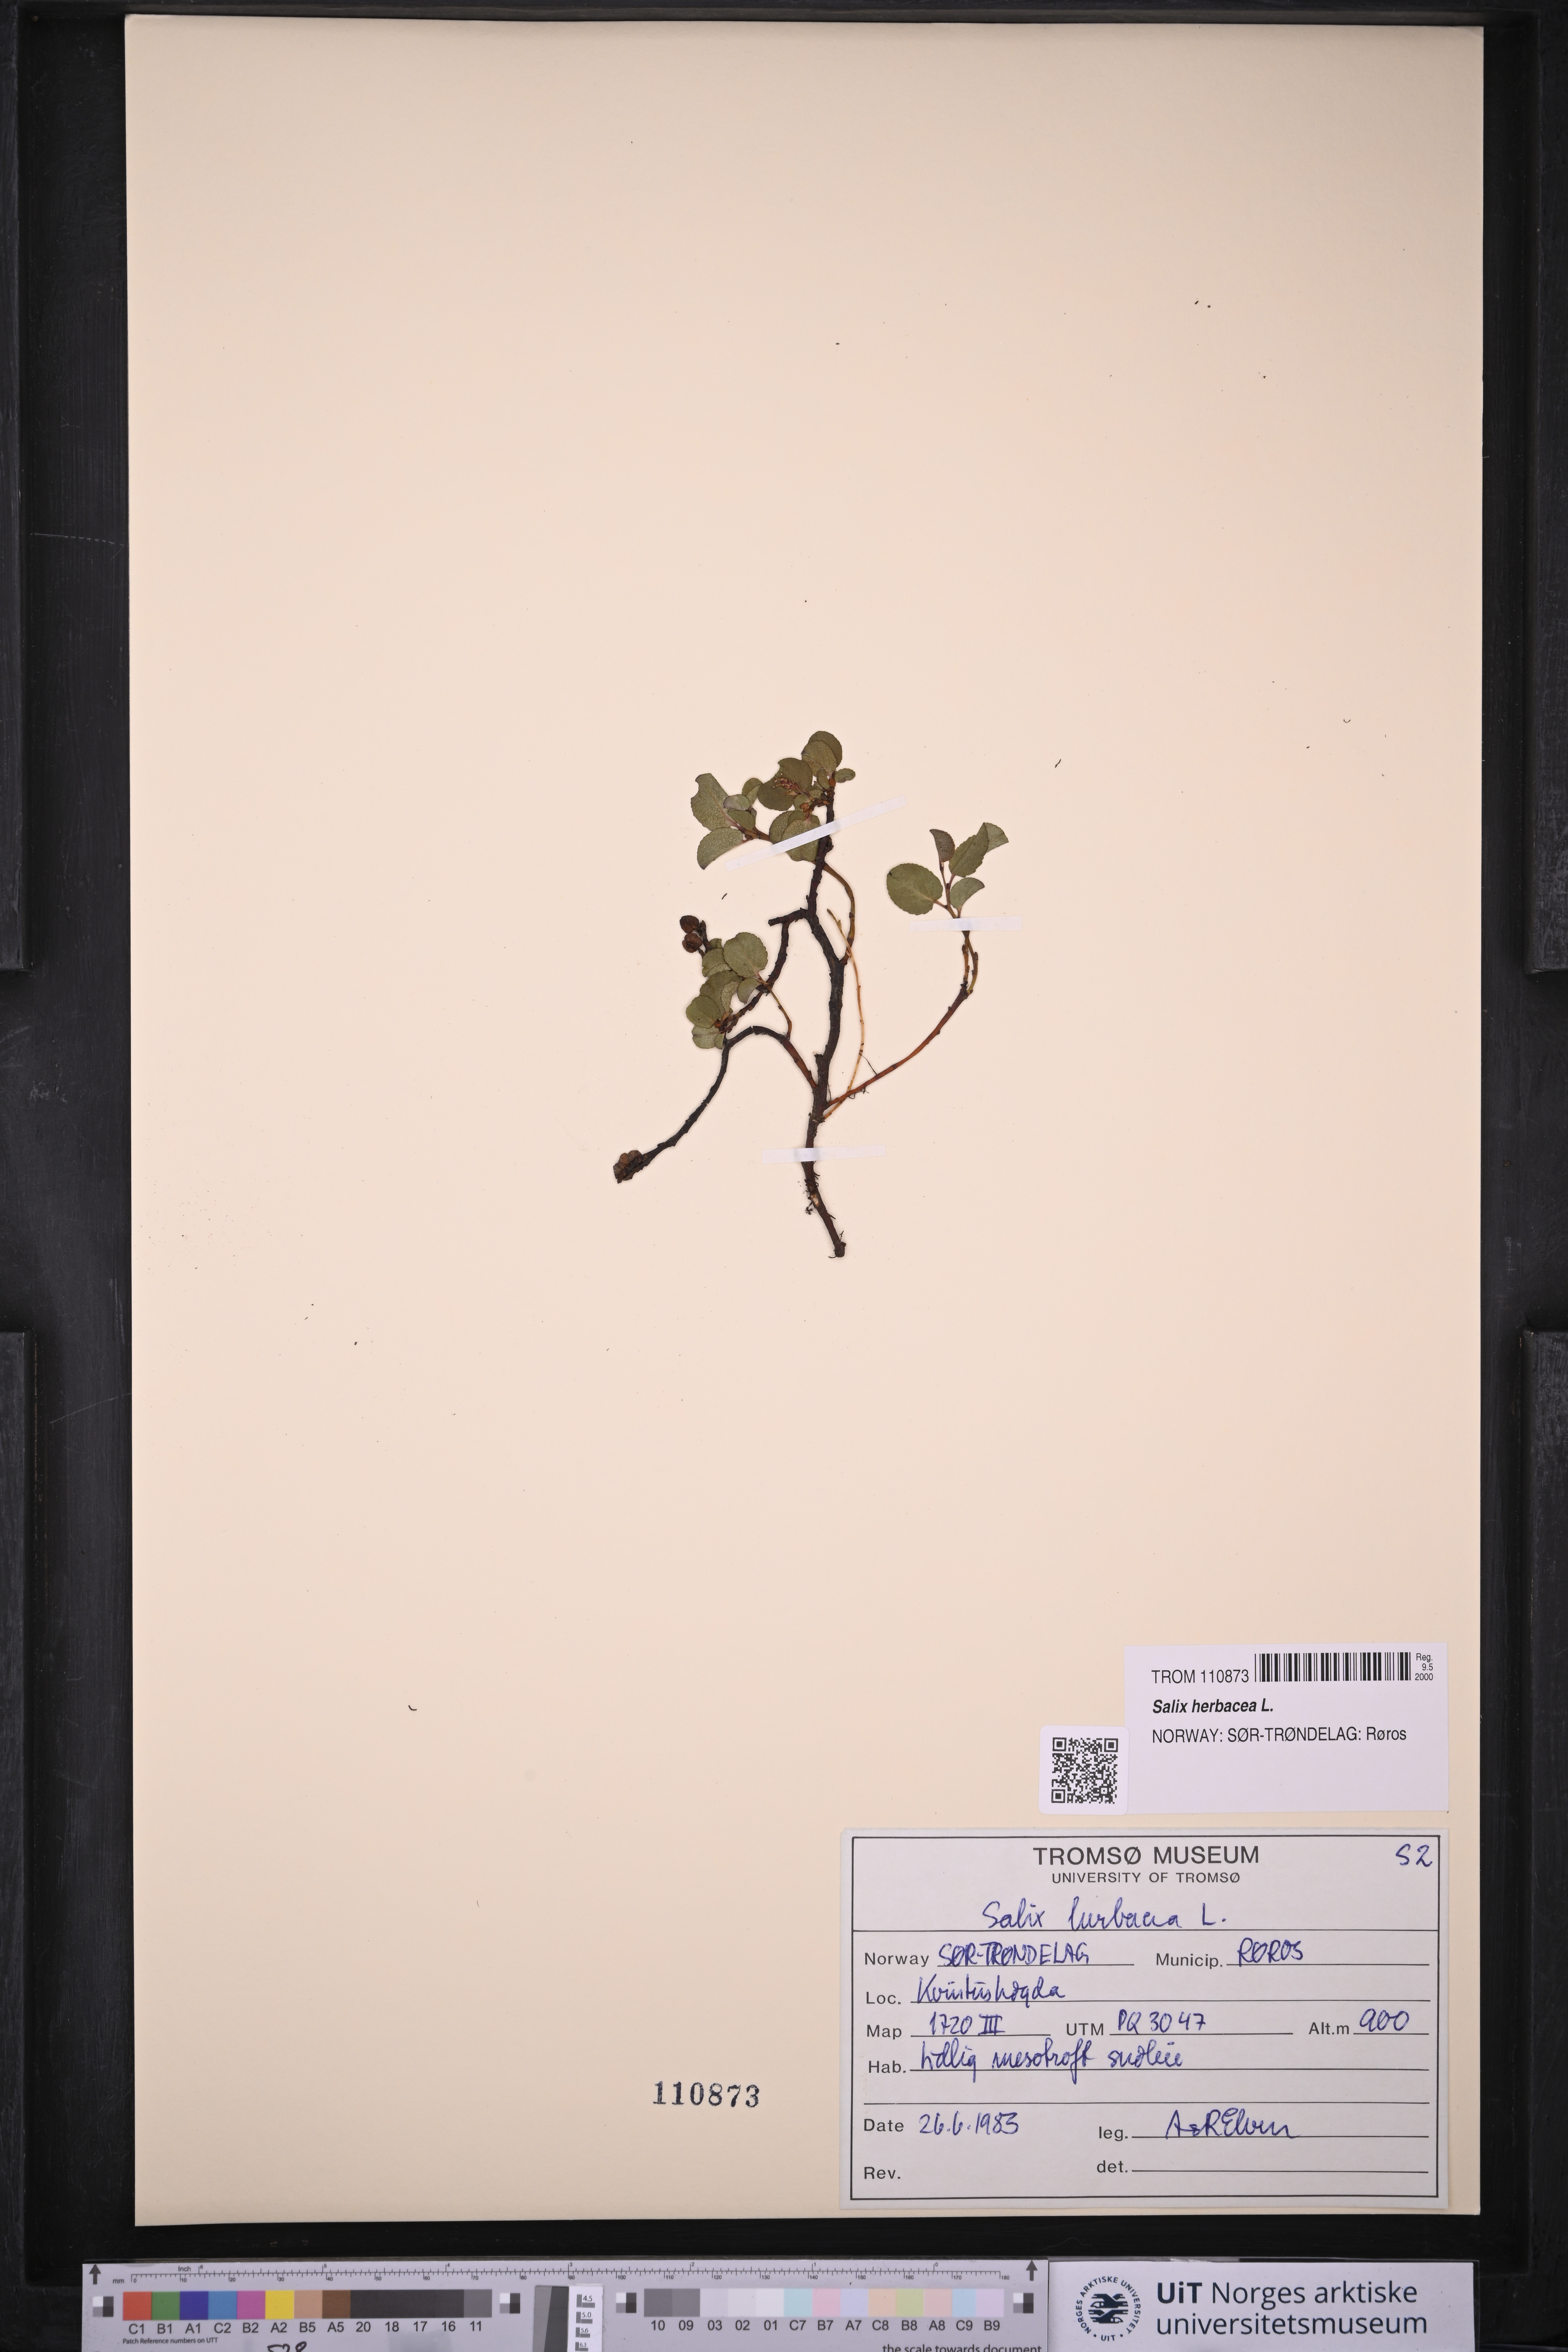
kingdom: Plantae
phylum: Tracheophyta
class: Magnoliopsida
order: Malpighiales
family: Salicaceae
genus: Salix
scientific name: Salix herbacea
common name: Dwarf willow
